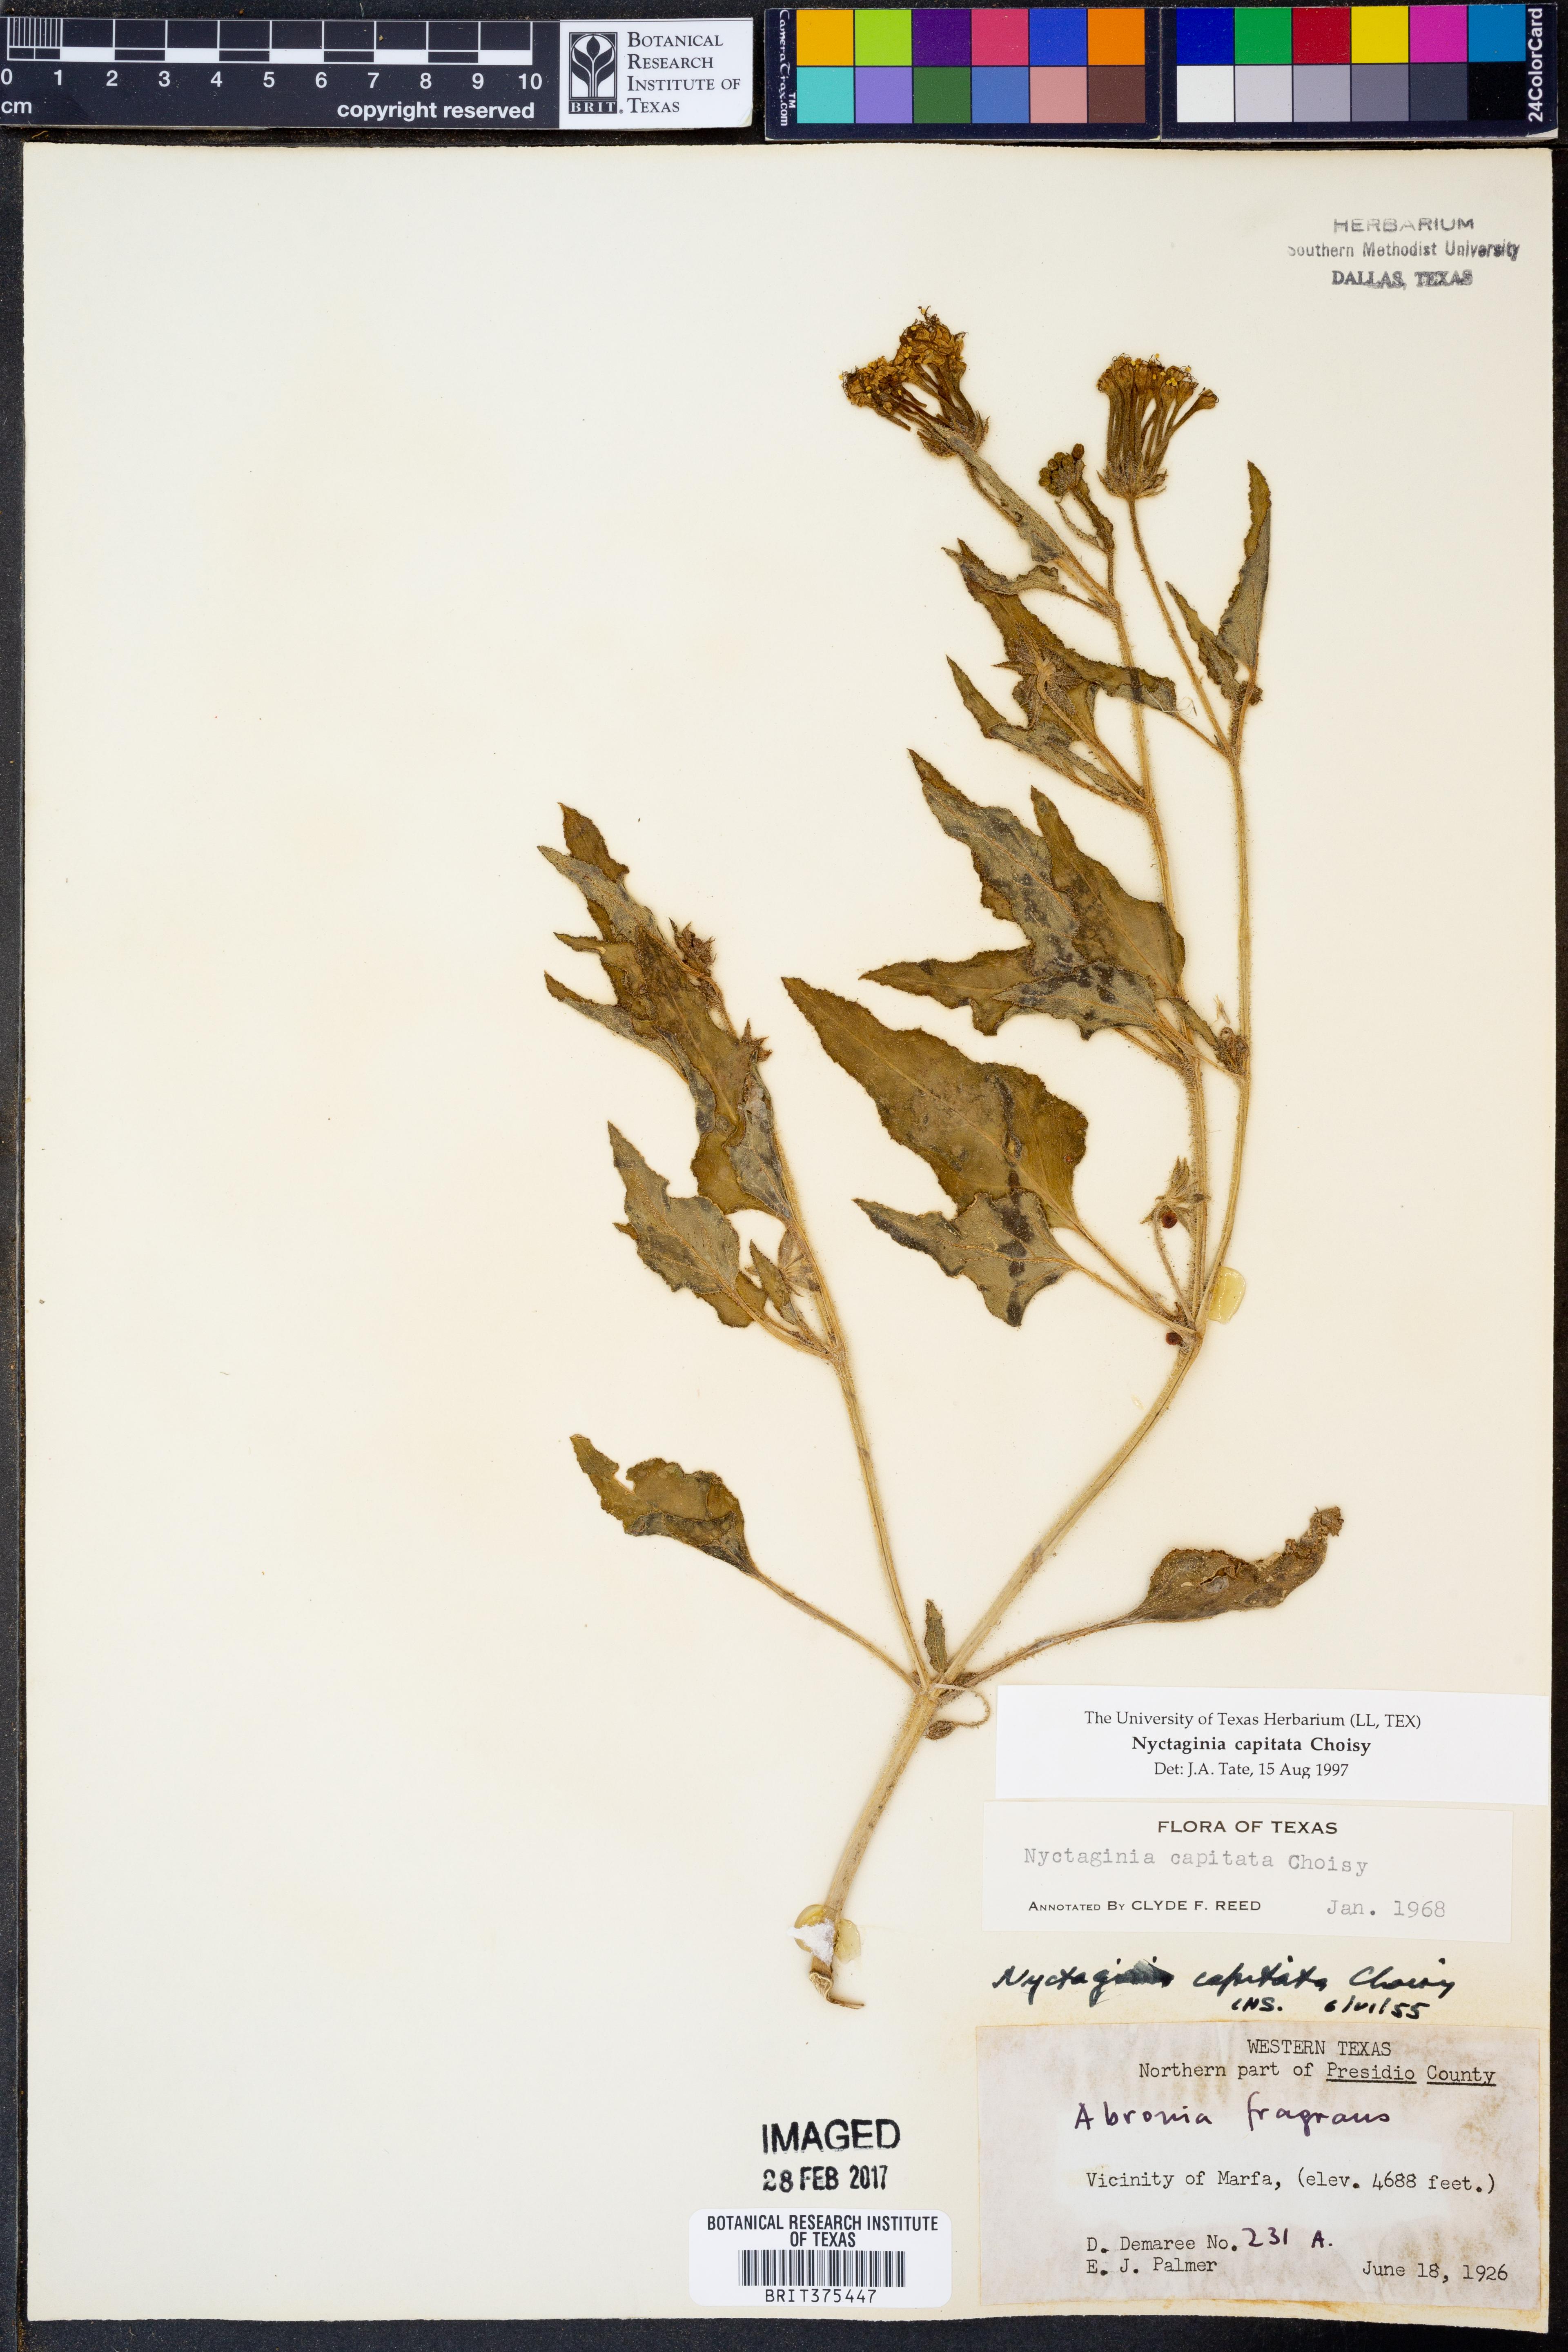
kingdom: Plantae
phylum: Tracheophyta
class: Magnoliopsida
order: Caryophyllales
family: Nyctaginaceae
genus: Nyctaginia
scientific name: Nyctaginia capitata
